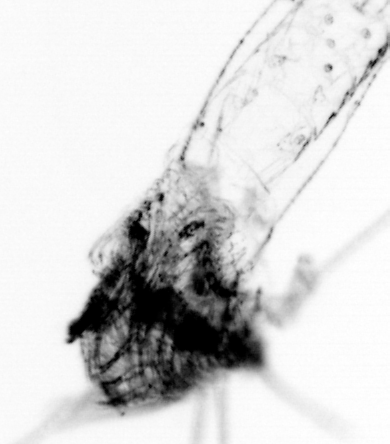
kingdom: Animalia
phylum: Chaetognatha
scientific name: Chaetognatha
